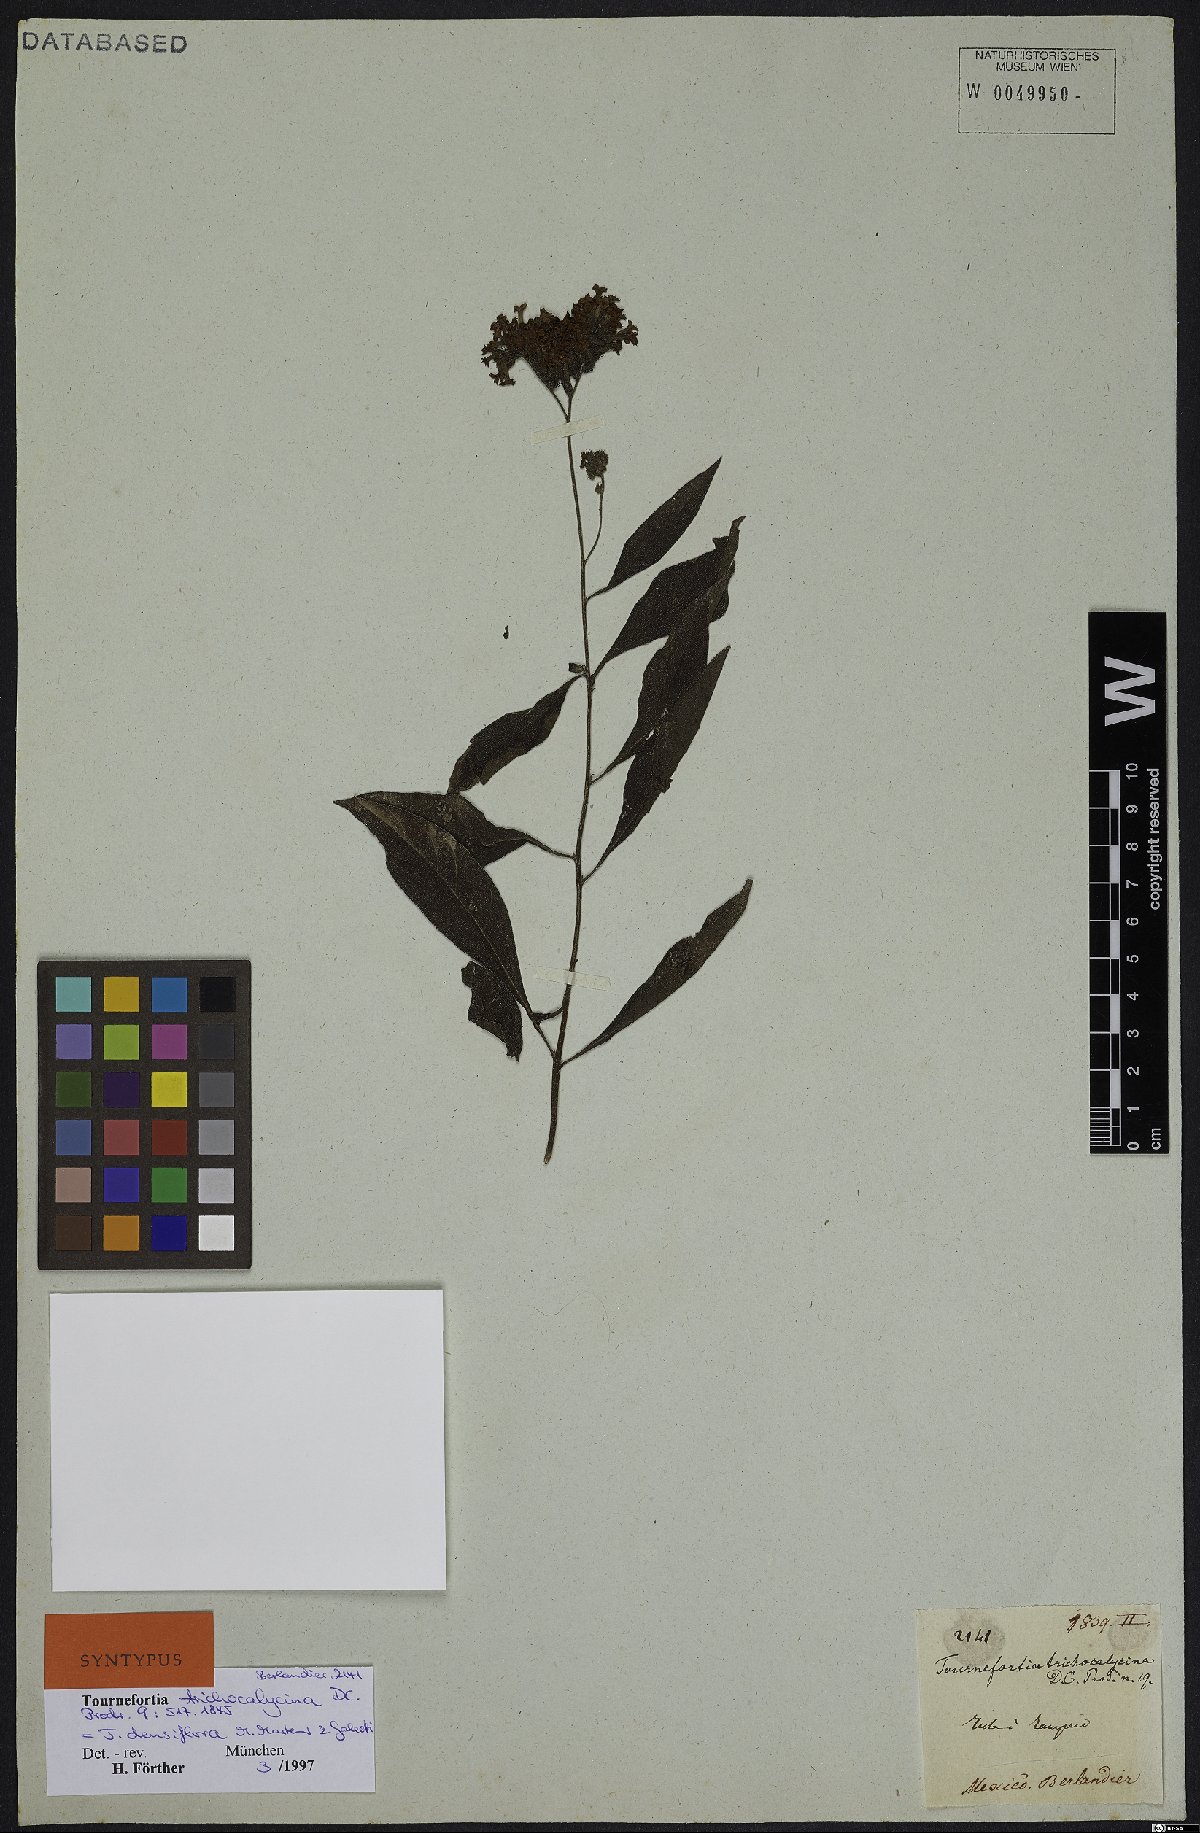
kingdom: Plantae
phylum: Tracheophyta
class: Magnoliopsida
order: Boraginales
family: Heliotropiaceae
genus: Tournefortia
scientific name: Tournefortia mutabilis
